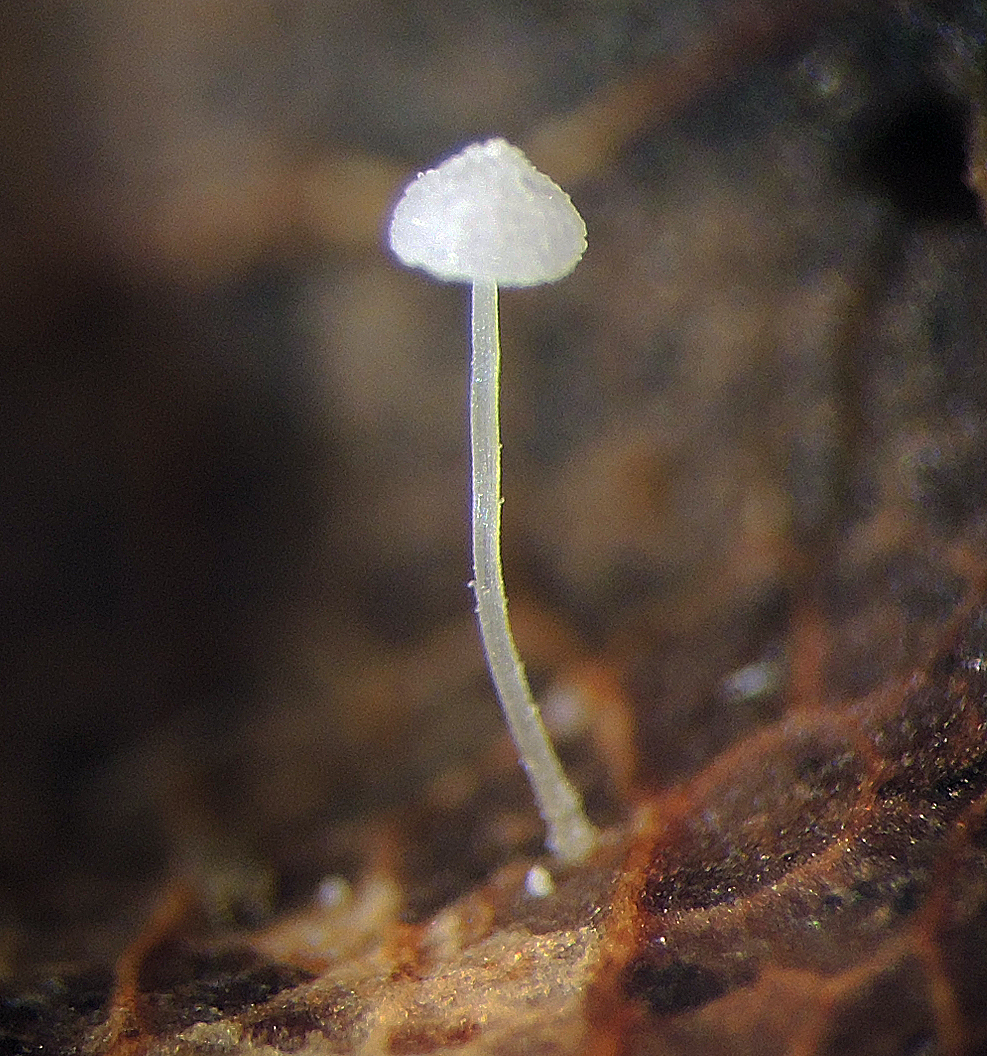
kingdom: Fungi
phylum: Basidiomycota
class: Agaricomycetes
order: Agaricales
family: Mycenaceae
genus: Mycena
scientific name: Mycena polyadelpha
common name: egeblads-huesvamp
